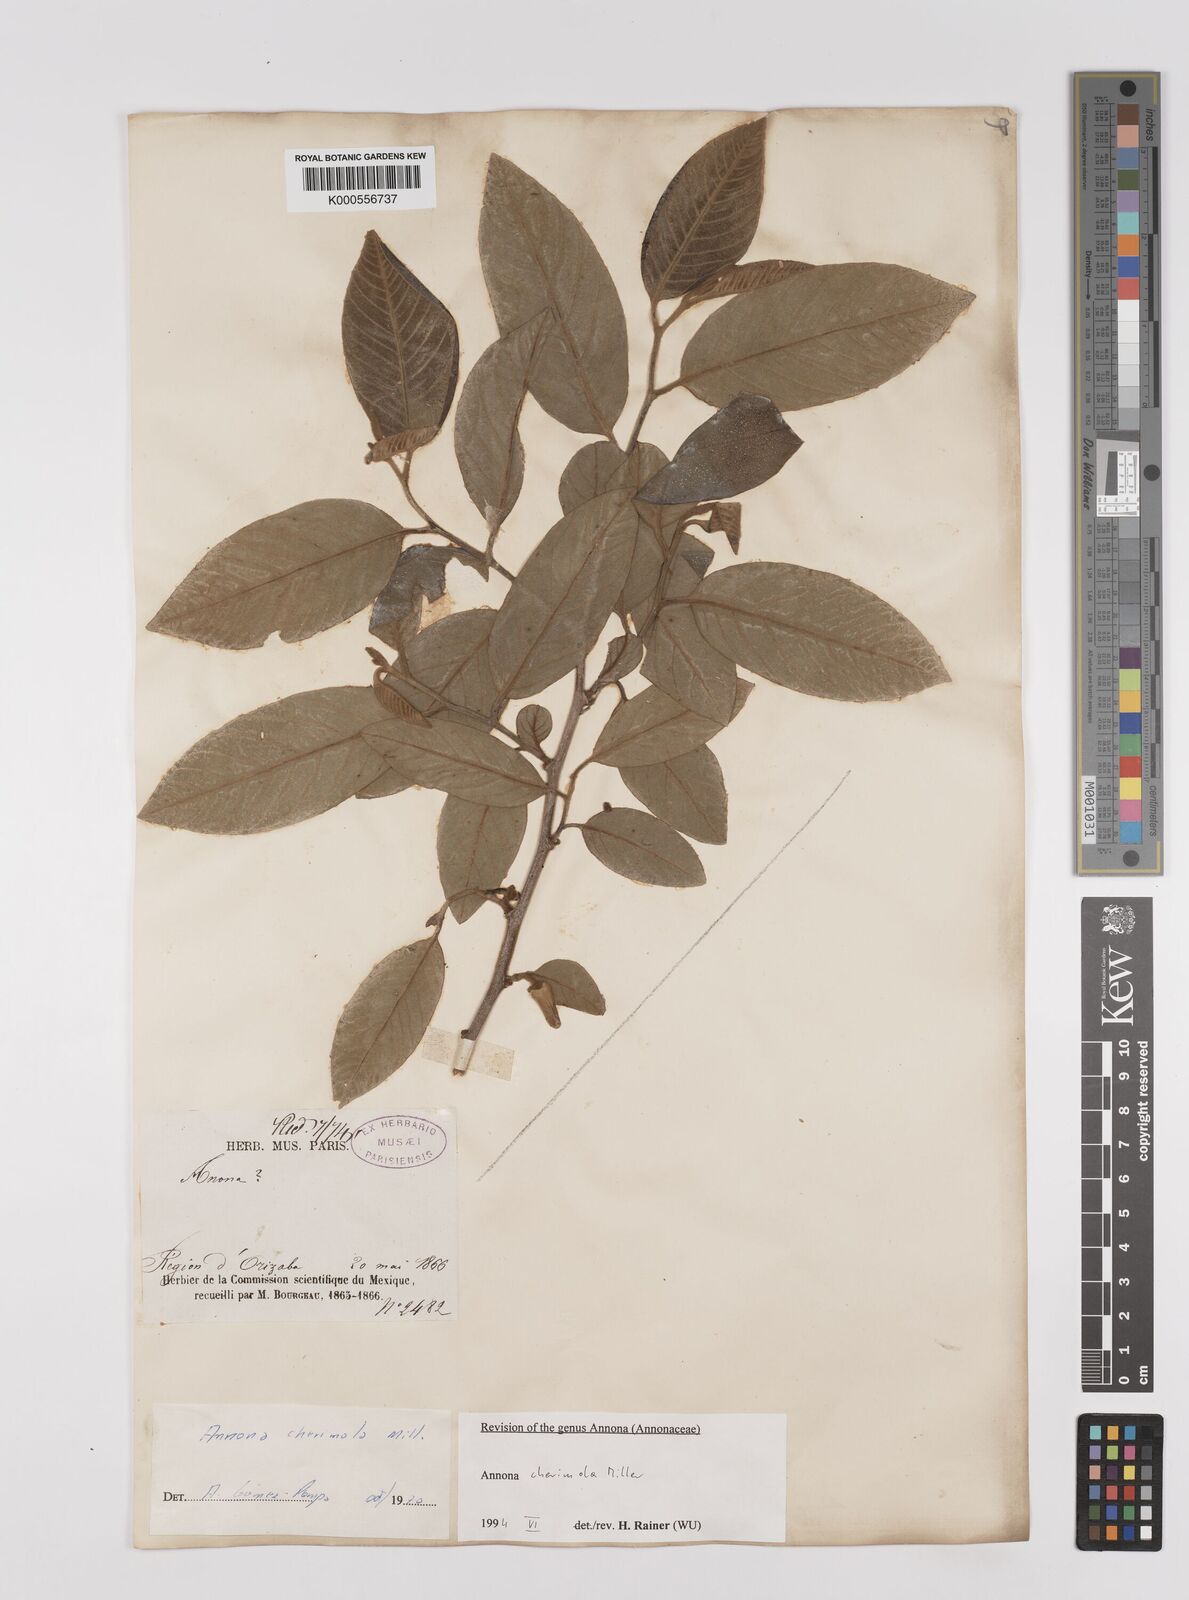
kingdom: Plantae
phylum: Tracheophyta
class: Magnoliopsida
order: Magnoliales
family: Annonaceae
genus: Annona
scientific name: Annona cherimola
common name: Cherimoya
